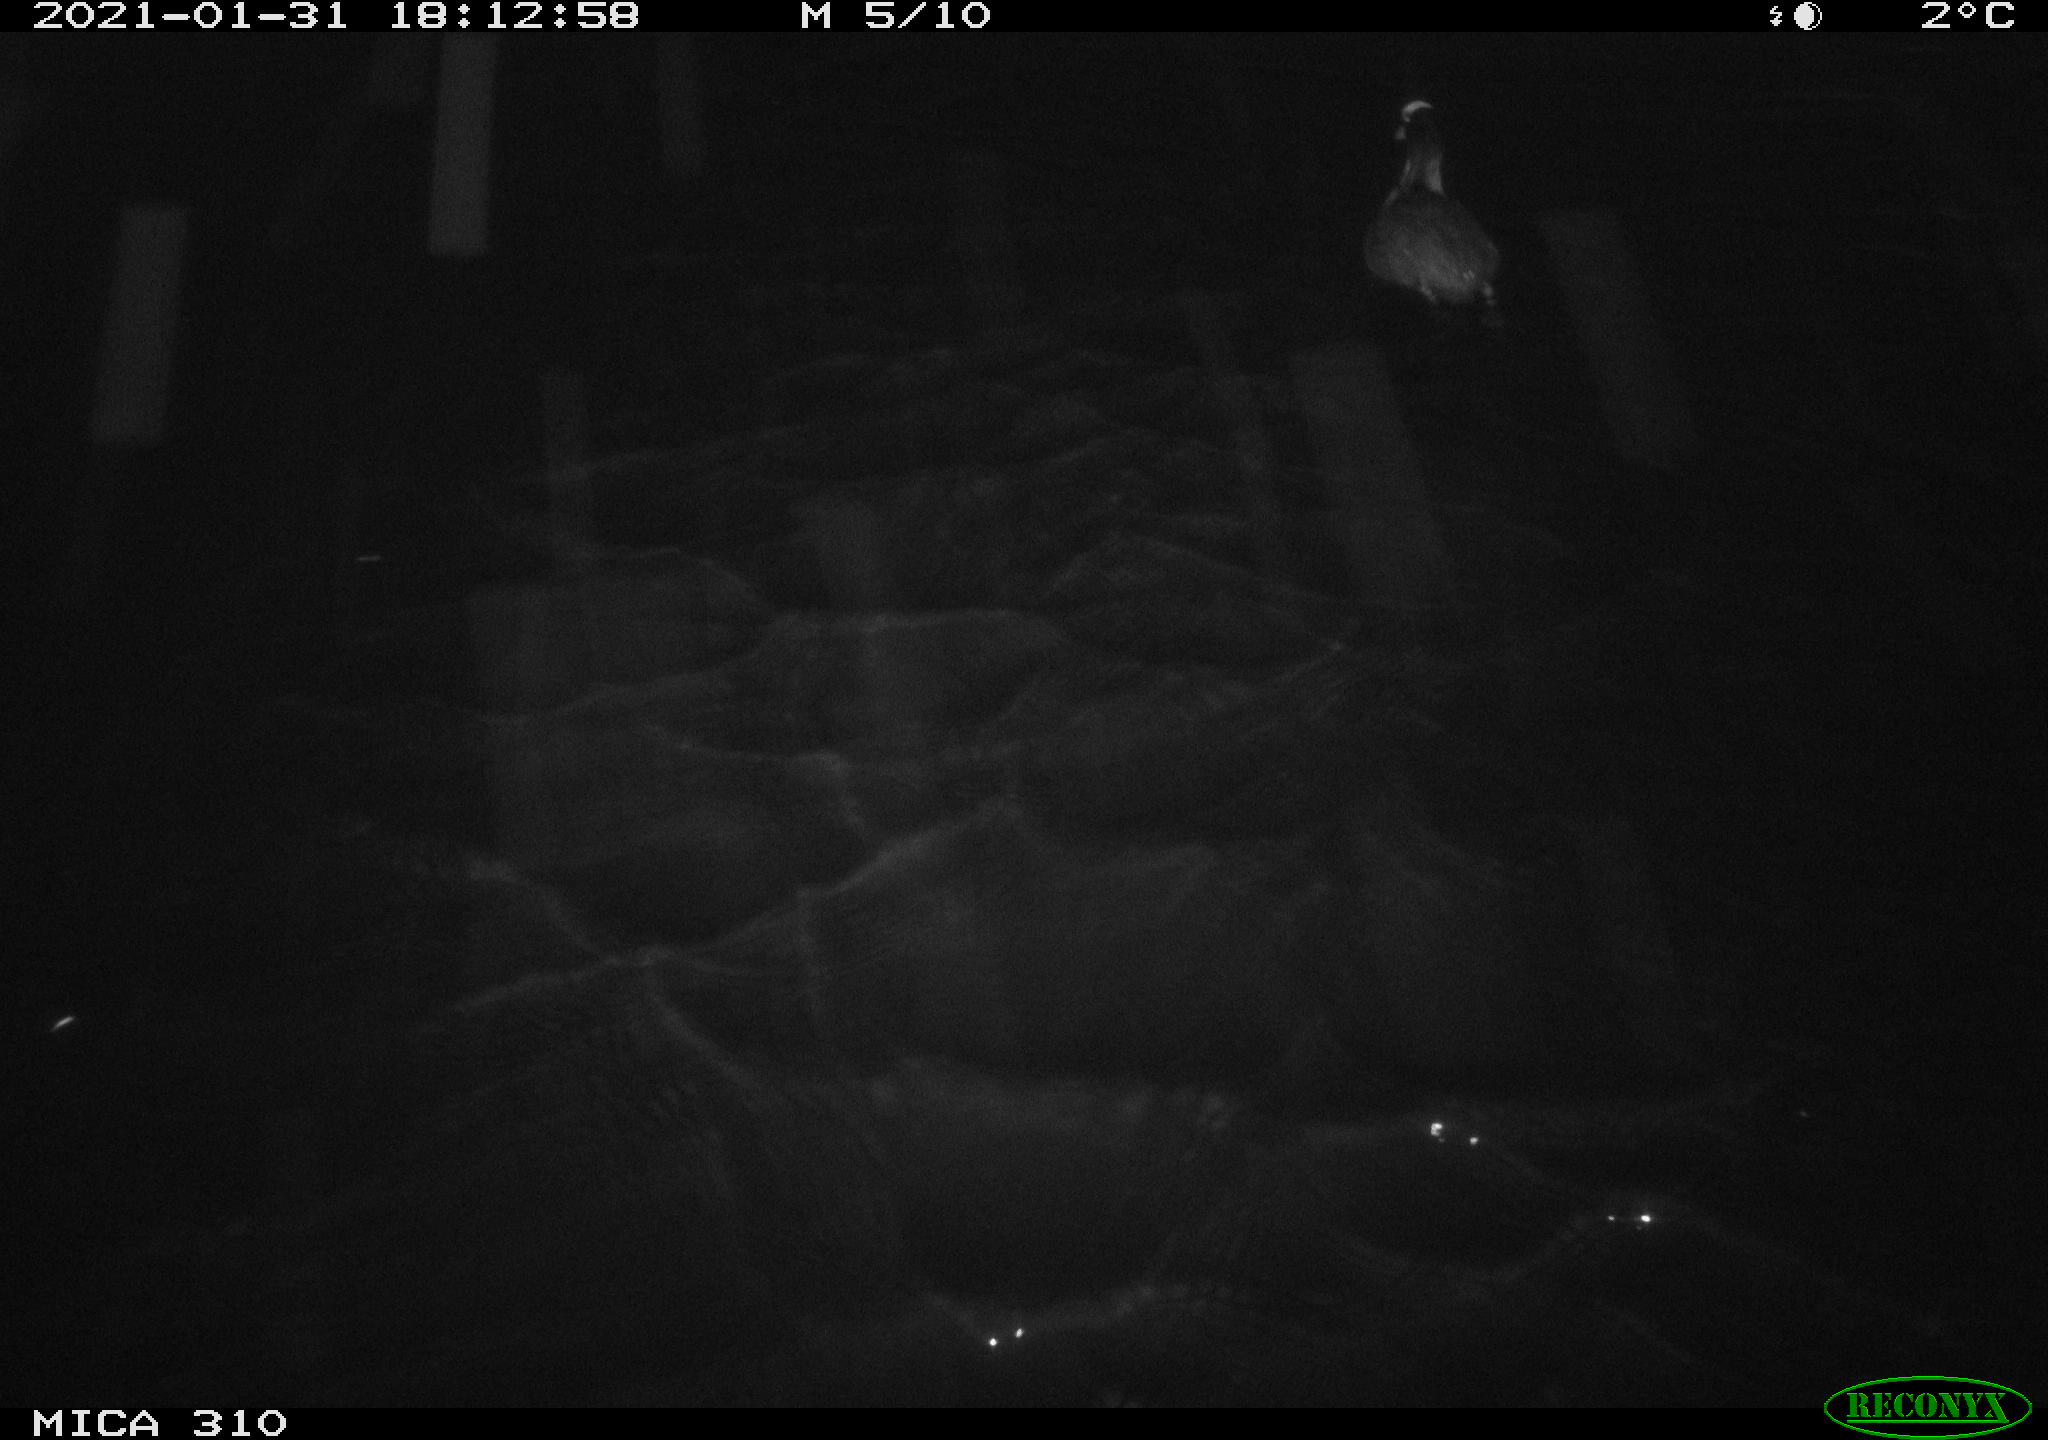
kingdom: Animalia
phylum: Chordata
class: Aves
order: Gruiformes
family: Rallidae
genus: Fulica
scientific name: Fulica atra
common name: Eurasian coot
